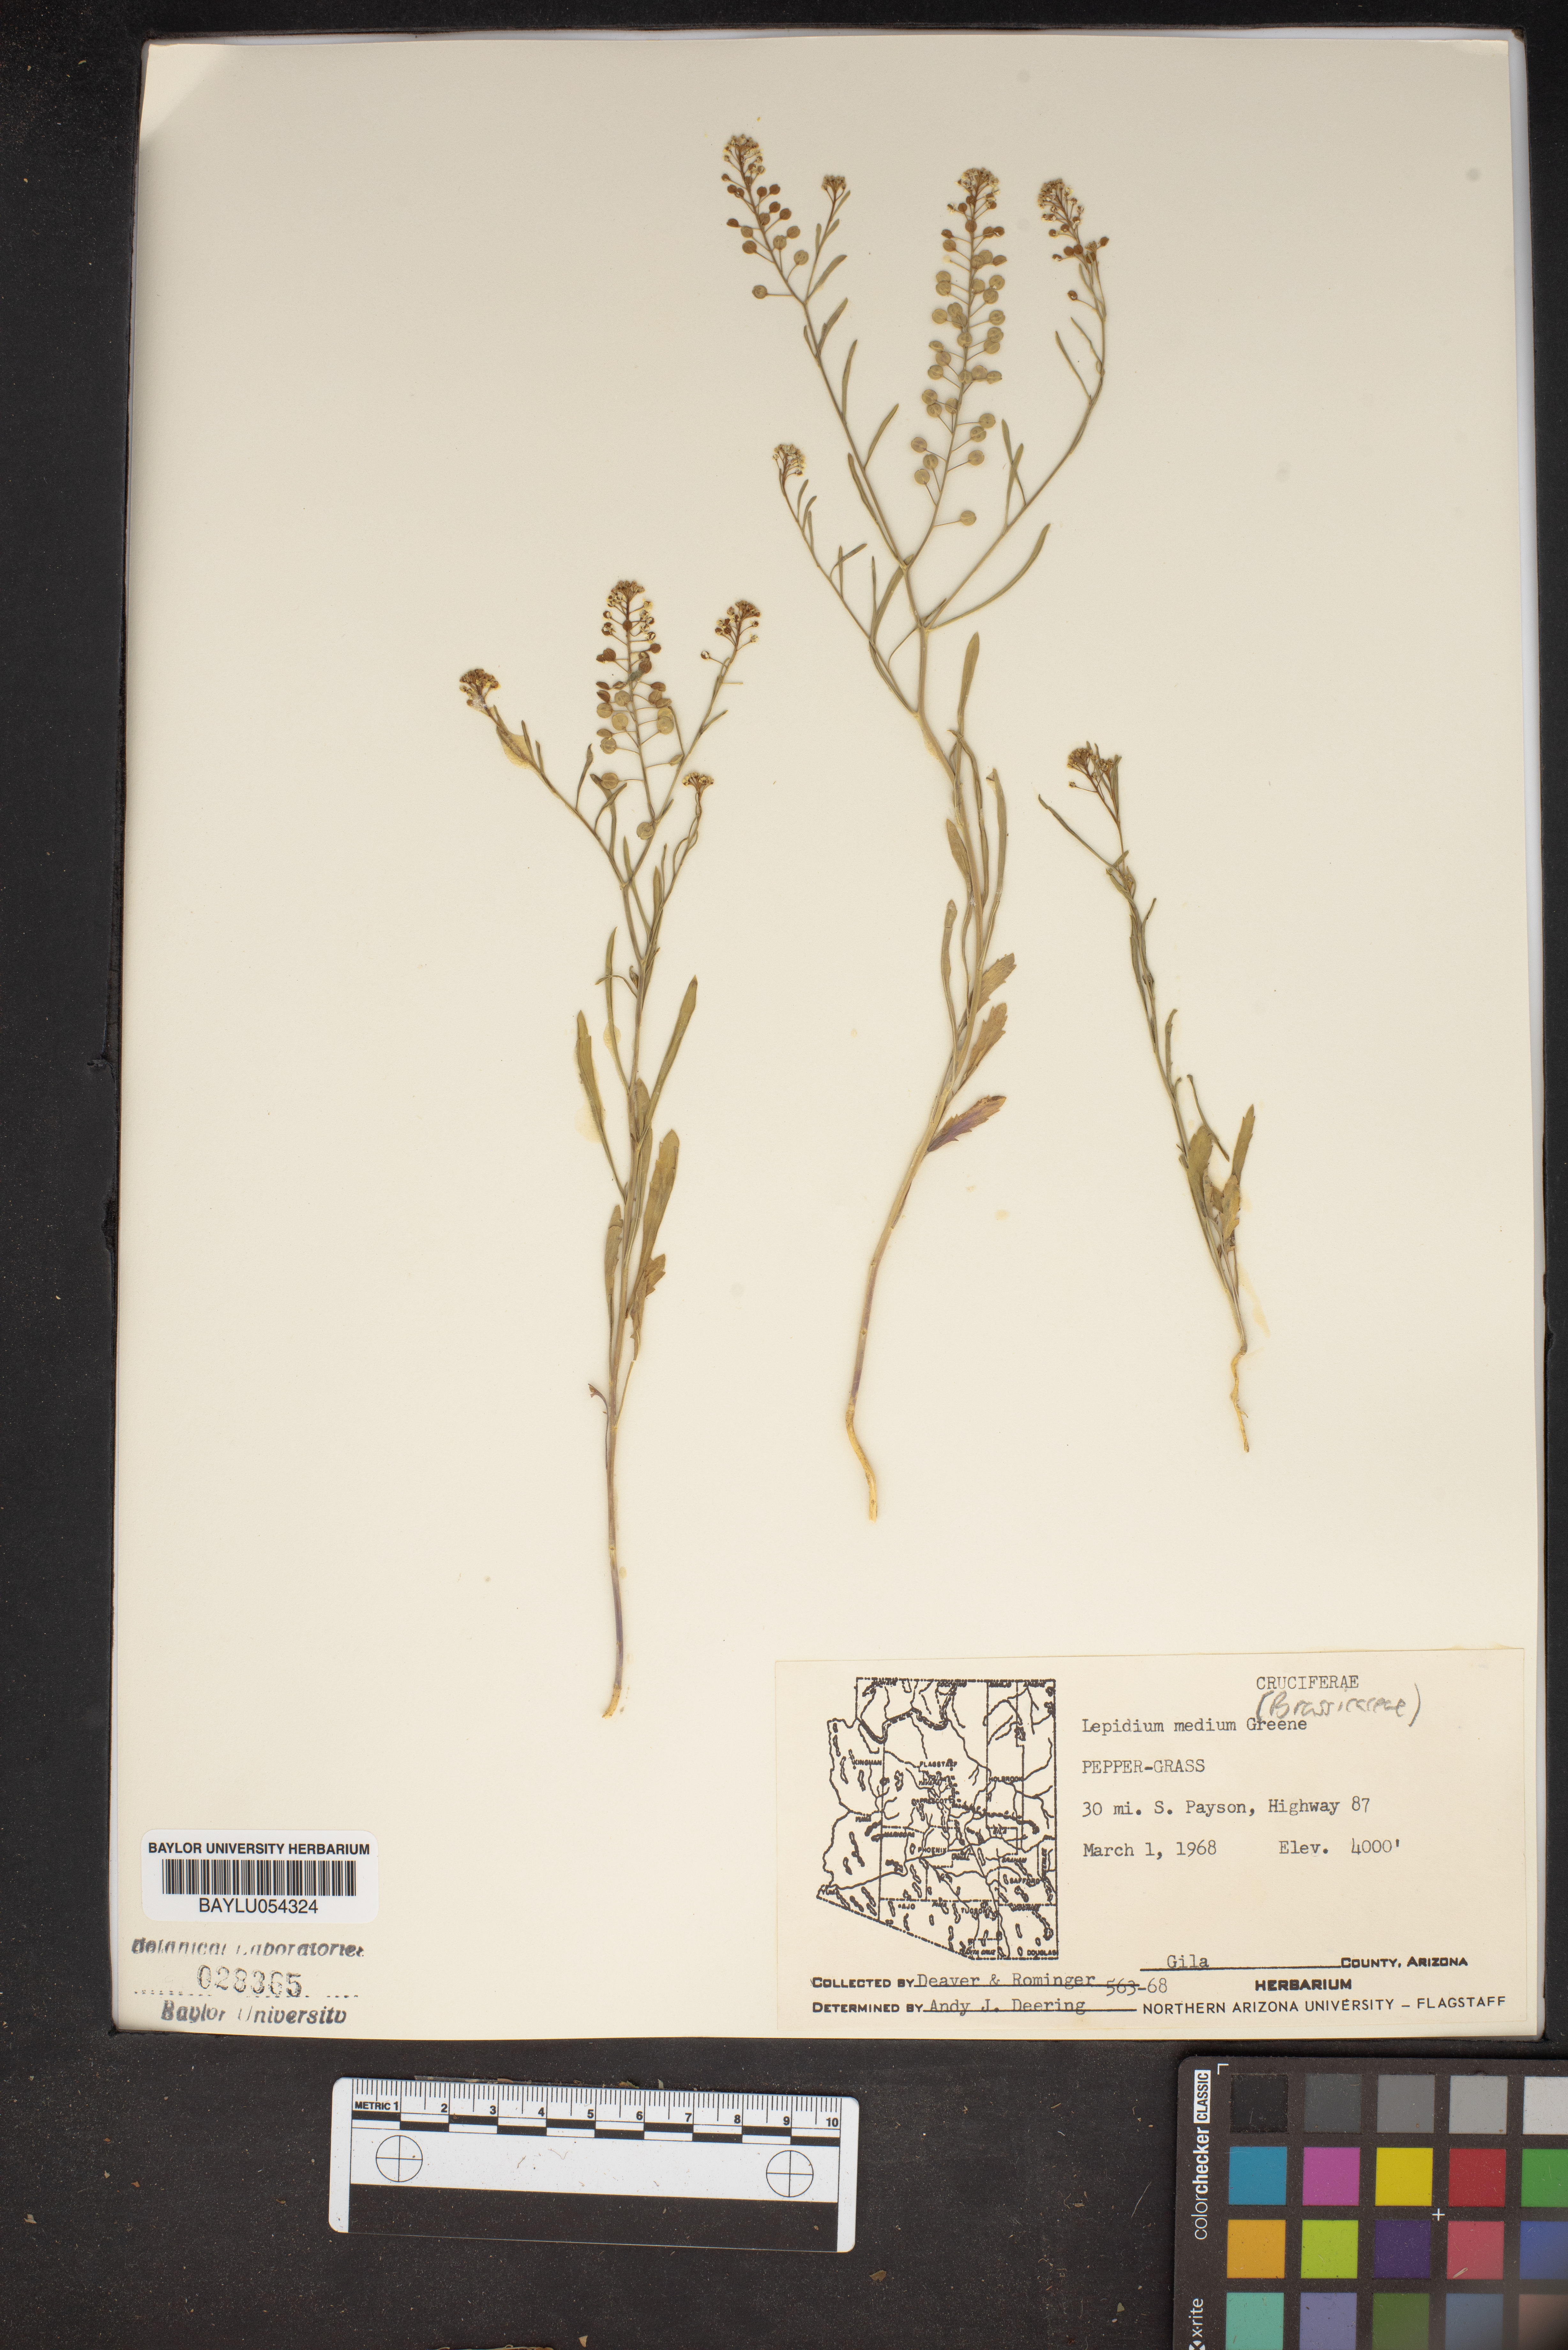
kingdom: Plantae
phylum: Tracheophyta
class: Magnoliopsida
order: Brassicales
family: Brassicaceae
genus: Lepidium
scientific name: Lepidium virginicum
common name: Least pepperwort
